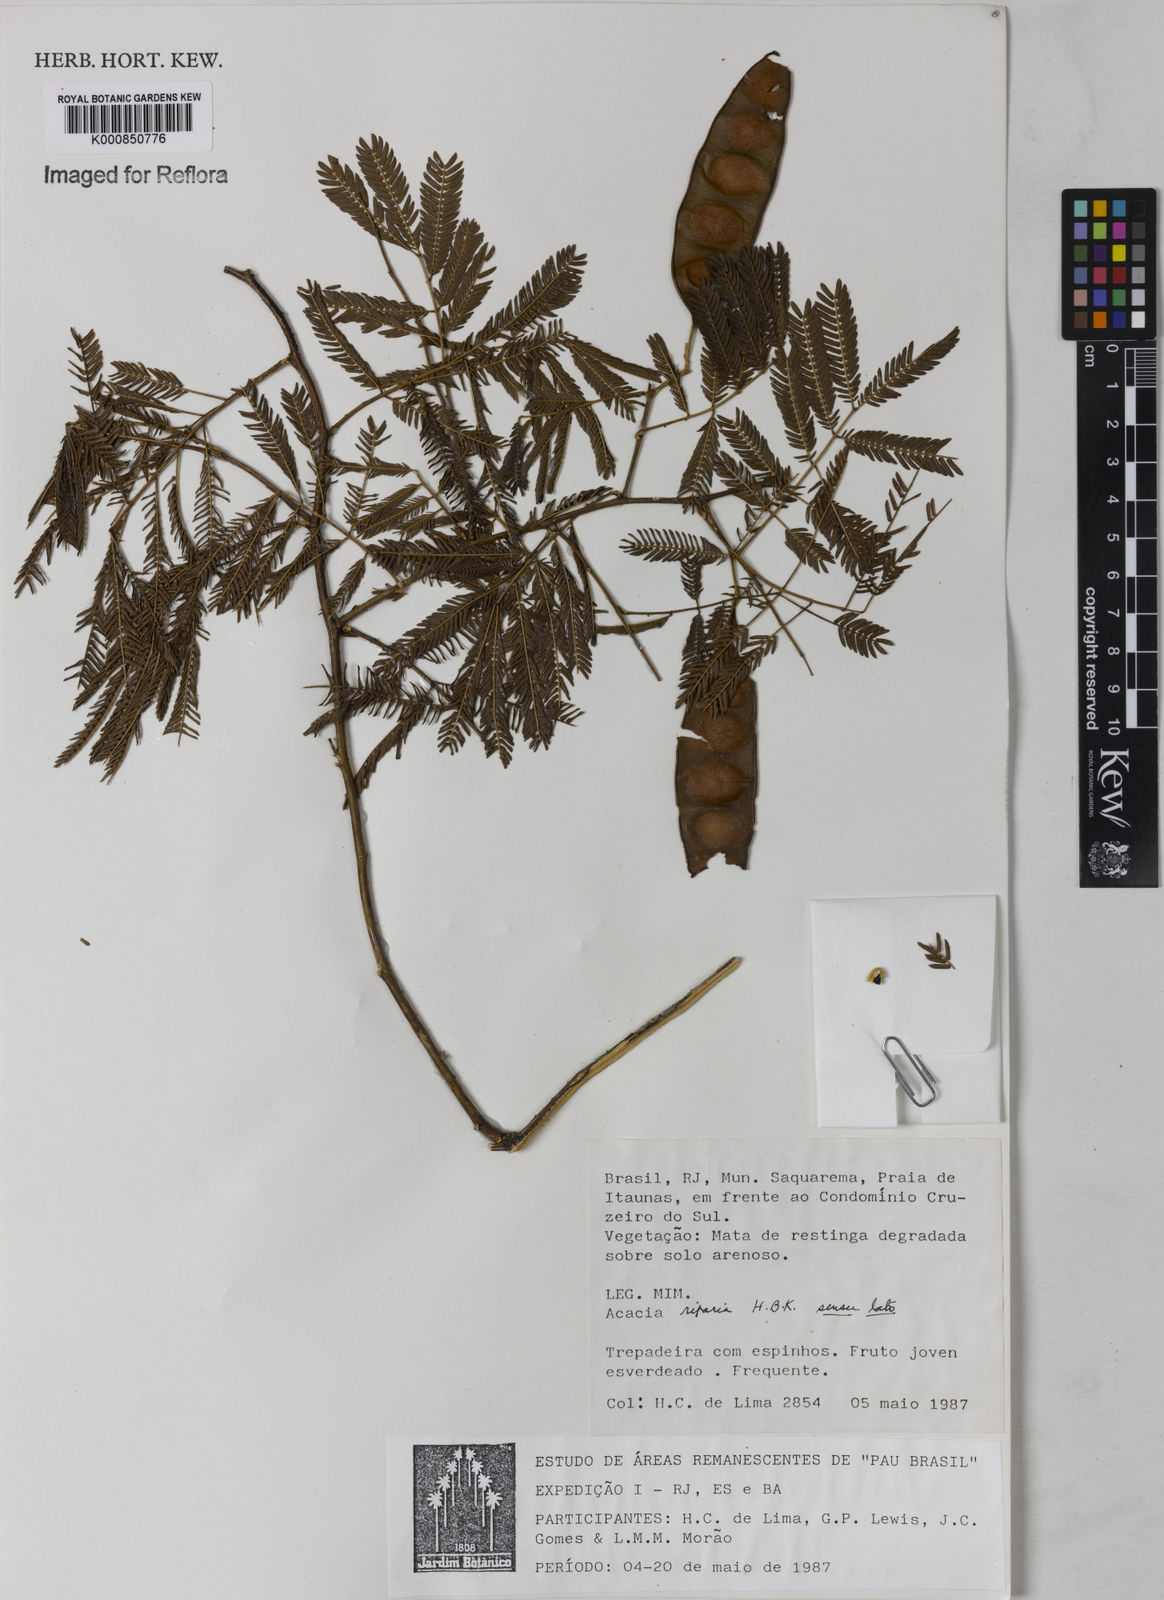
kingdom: Plantae
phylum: Tracheophyta
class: Magnoliopsida
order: Fabales
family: Fabaceae
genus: Senegalia
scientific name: Senegalia riparia
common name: Catch-and-keep
